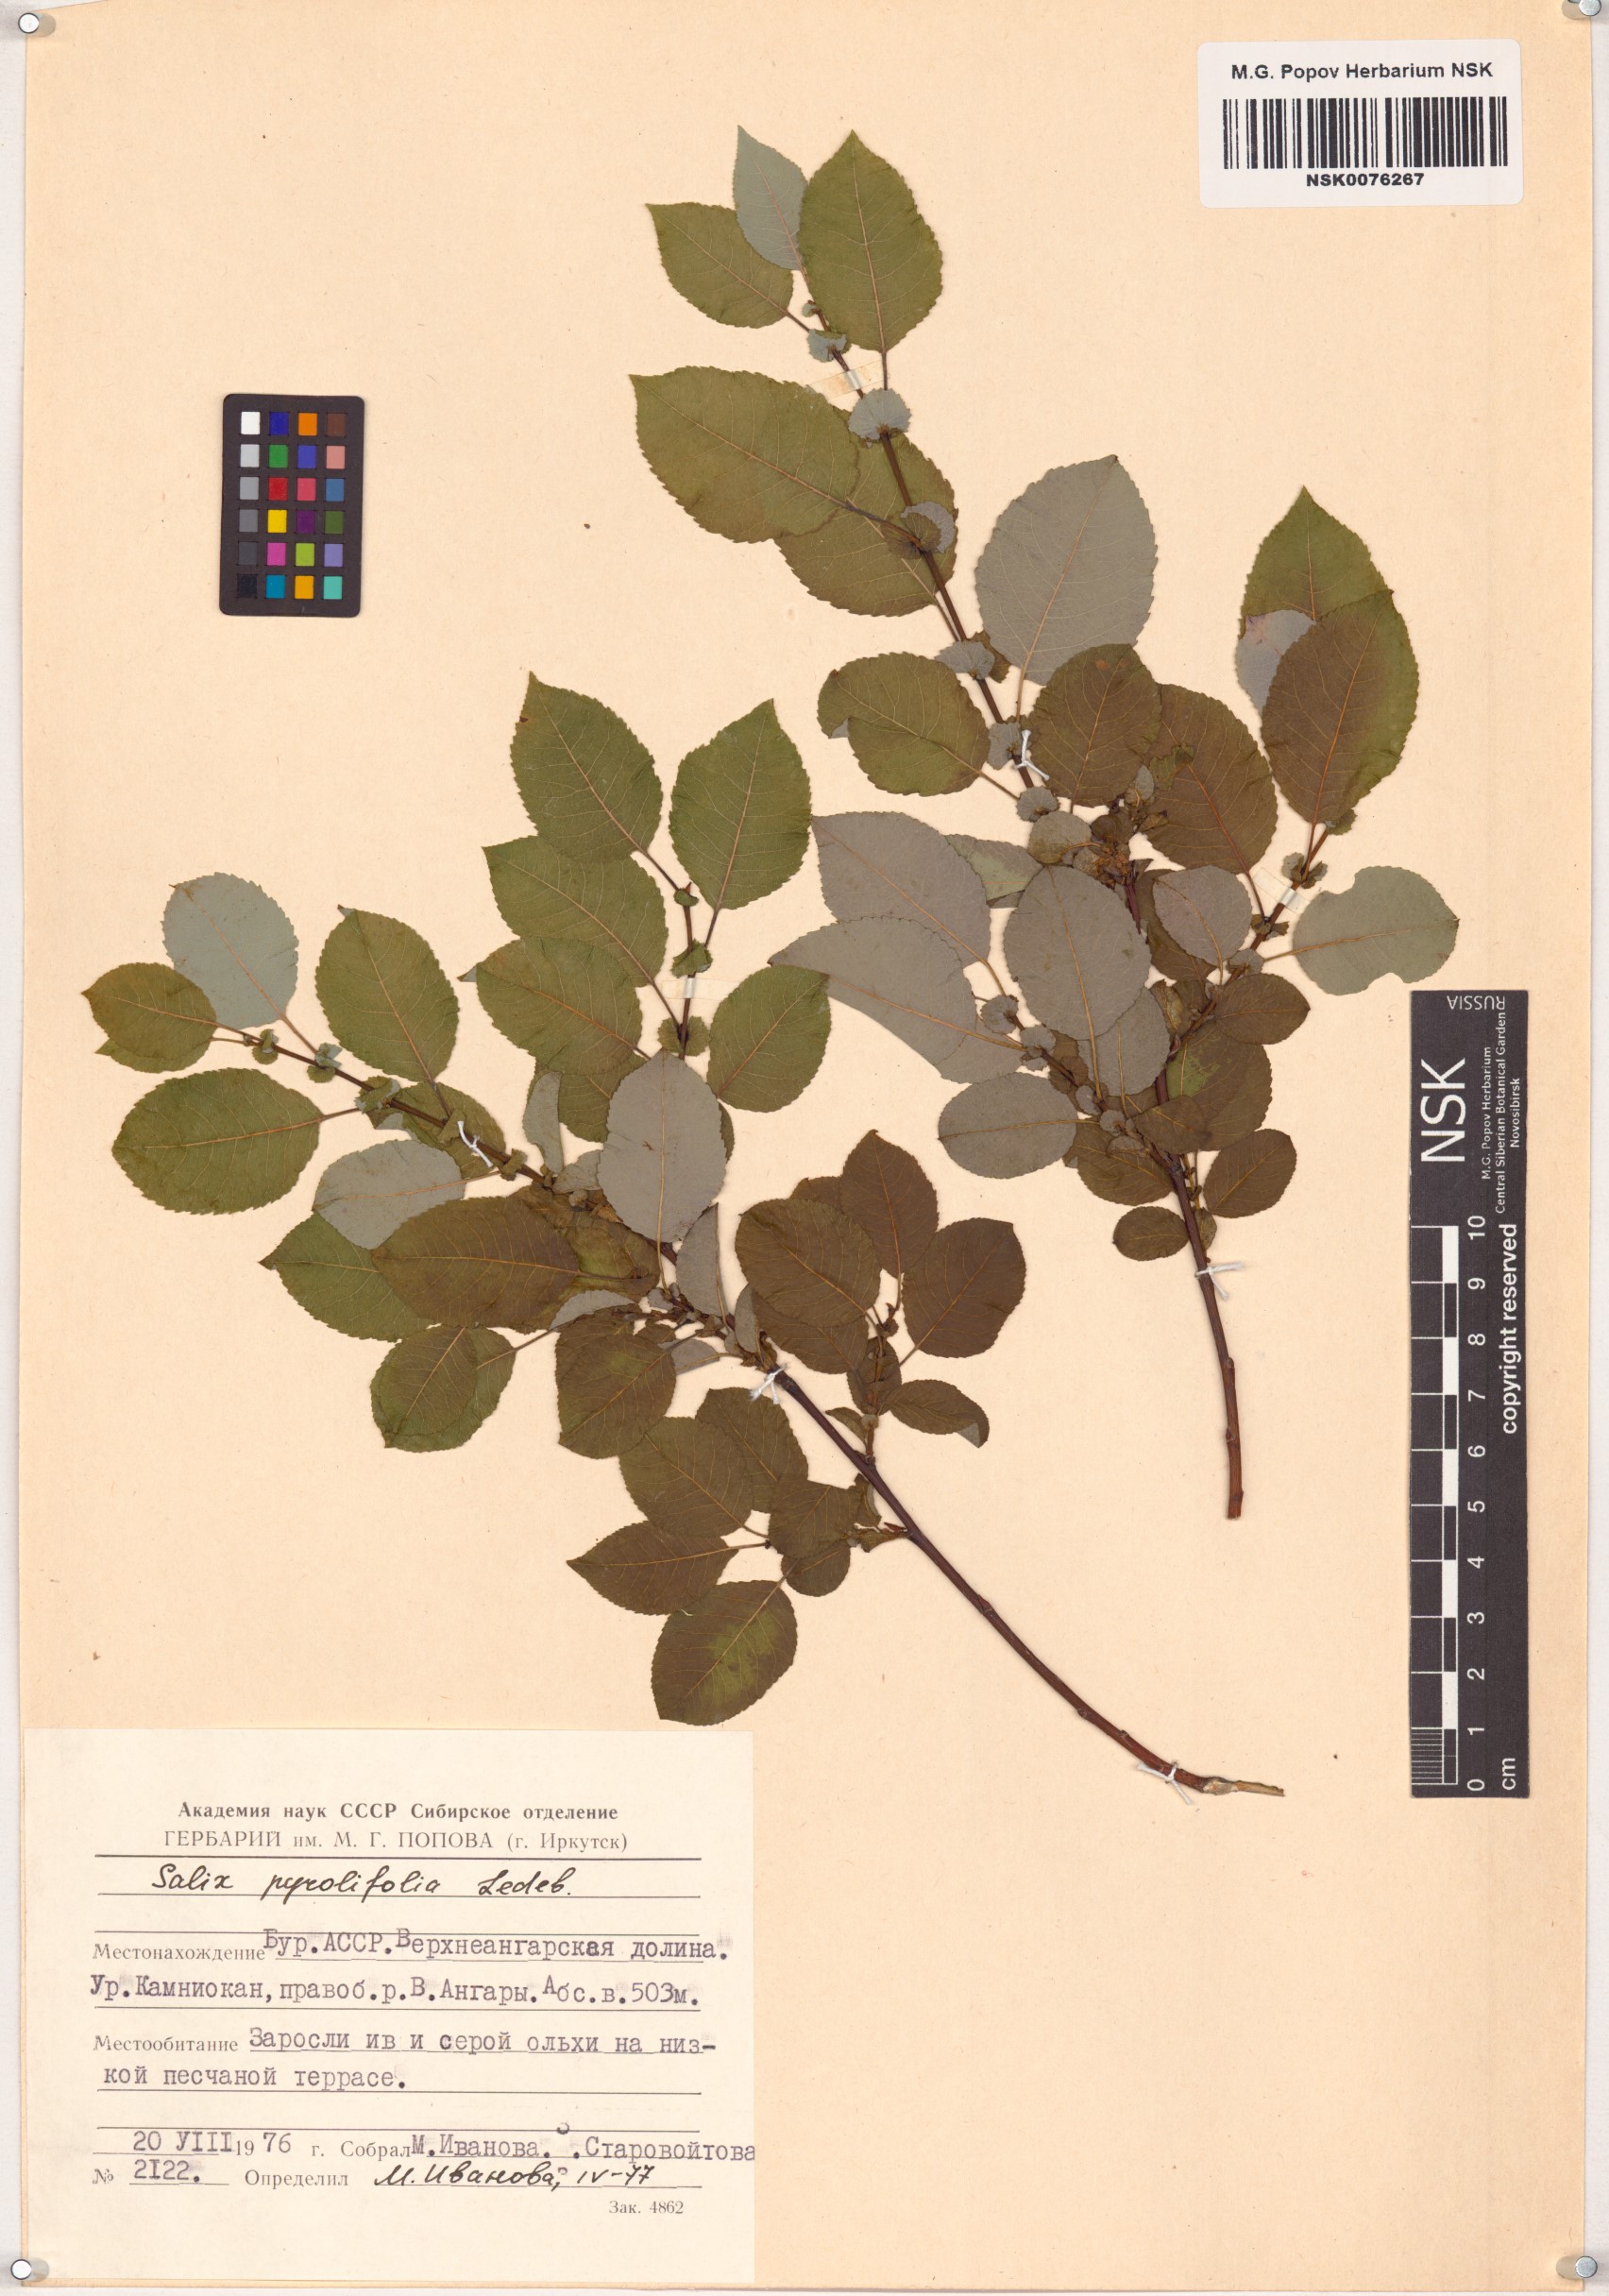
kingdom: Plantae
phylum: Tracheophyta
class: Magnoliopsida
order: Malpighiales
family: Salicaceae
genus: Salix
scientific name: Salix pyrolifolia
